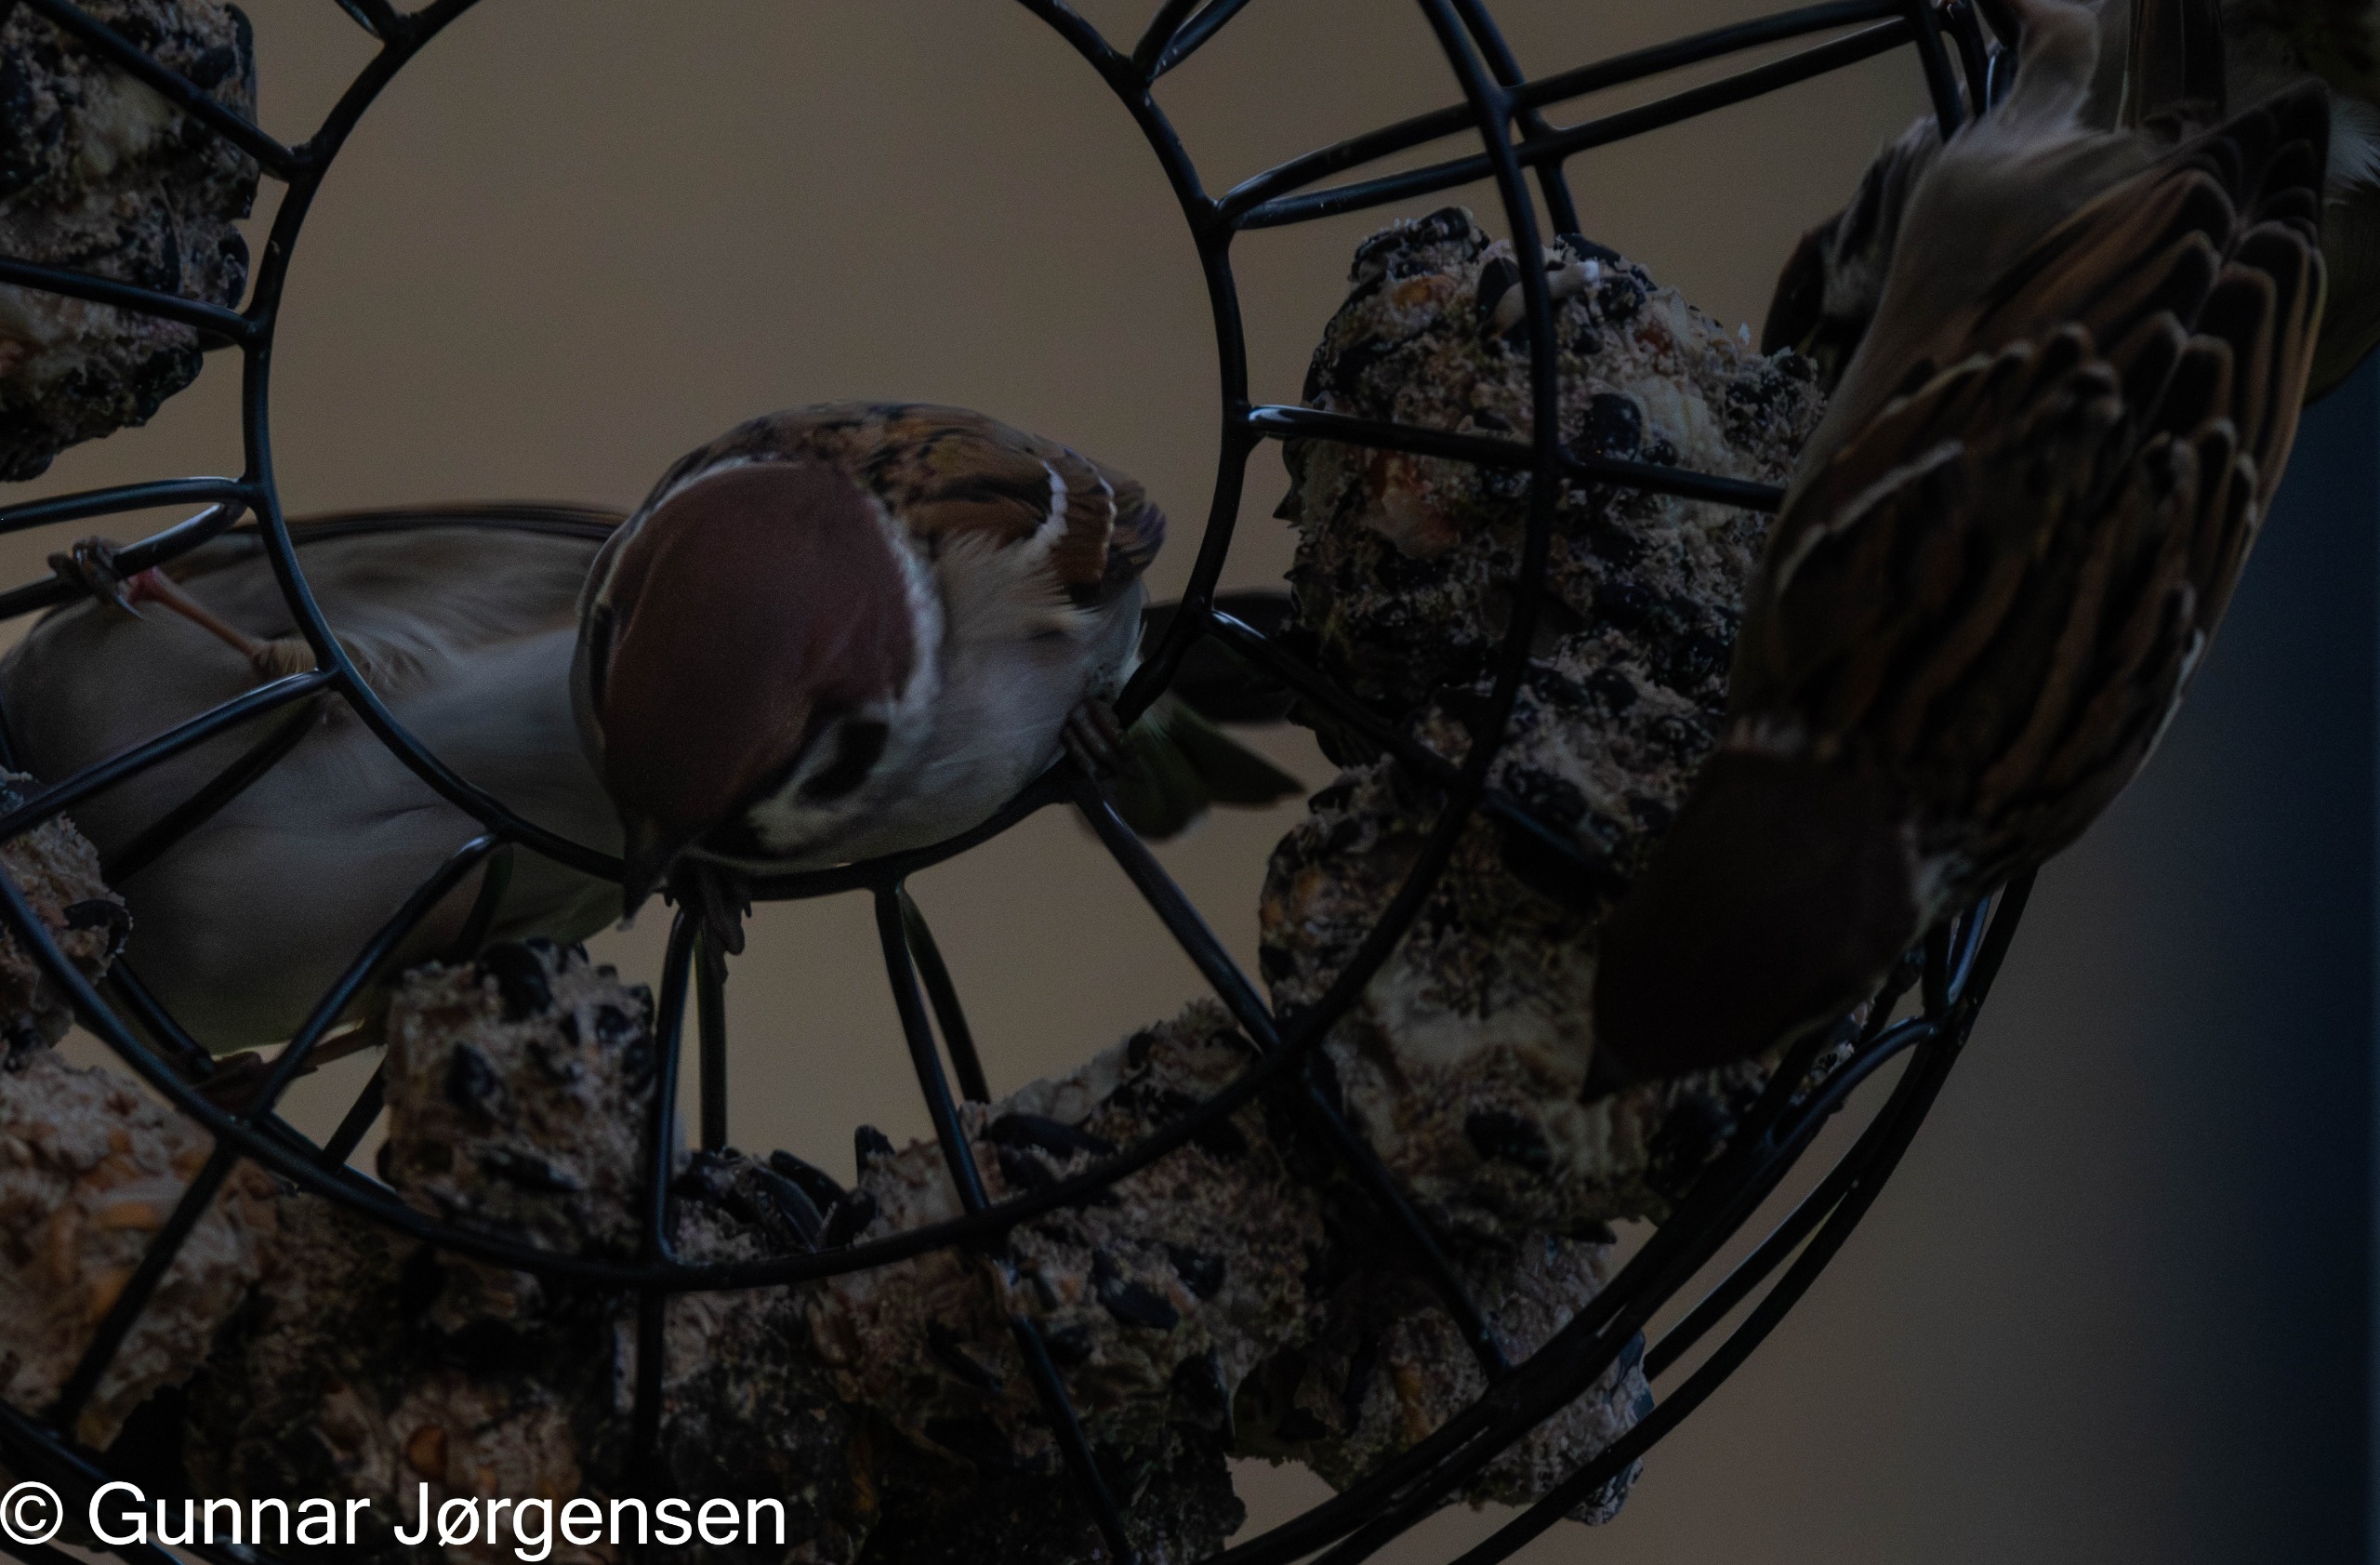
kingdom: Animalia
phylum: Chordata
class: Aves
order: Passeriformes
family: Passeridae
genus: Passer
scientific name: Passer montanus
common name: Skovspurv
